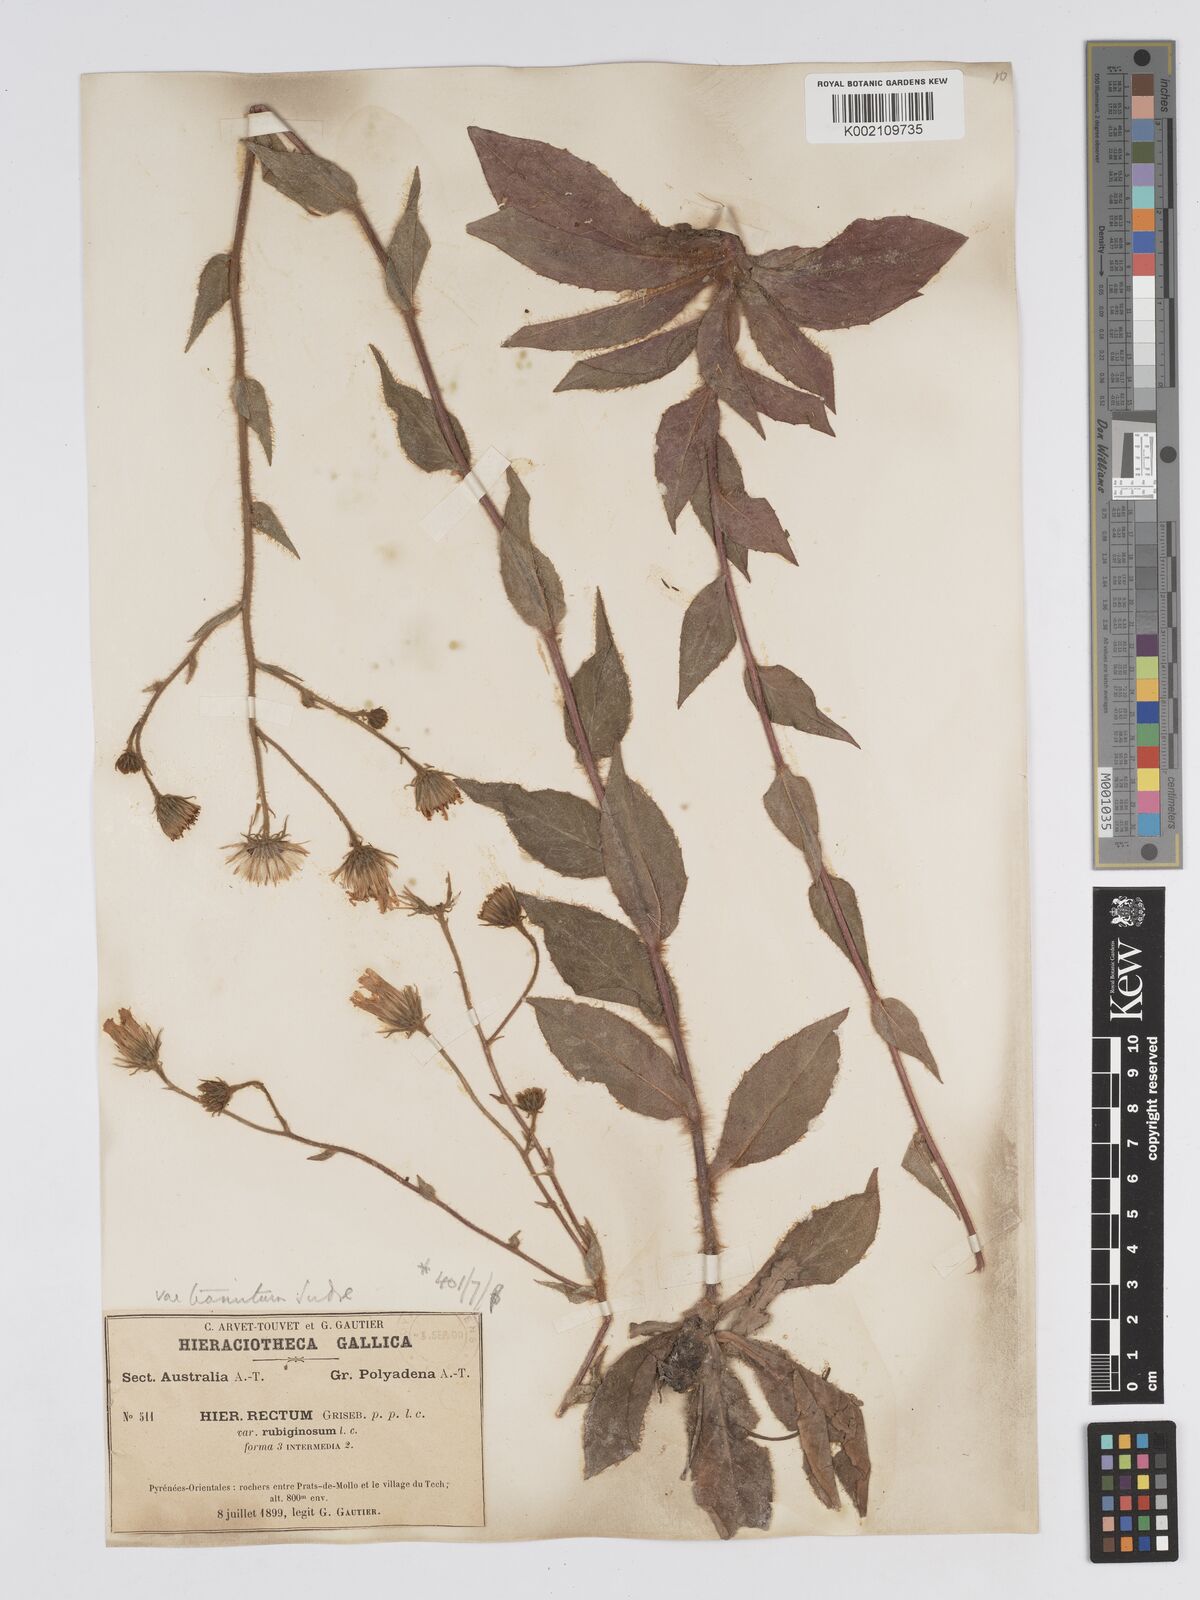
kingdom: Plantae
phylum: Tracheophyta
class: Magnoliopsida
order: Asterales
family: Asteraceae
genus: Hieracium
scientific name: Hieracium patens
